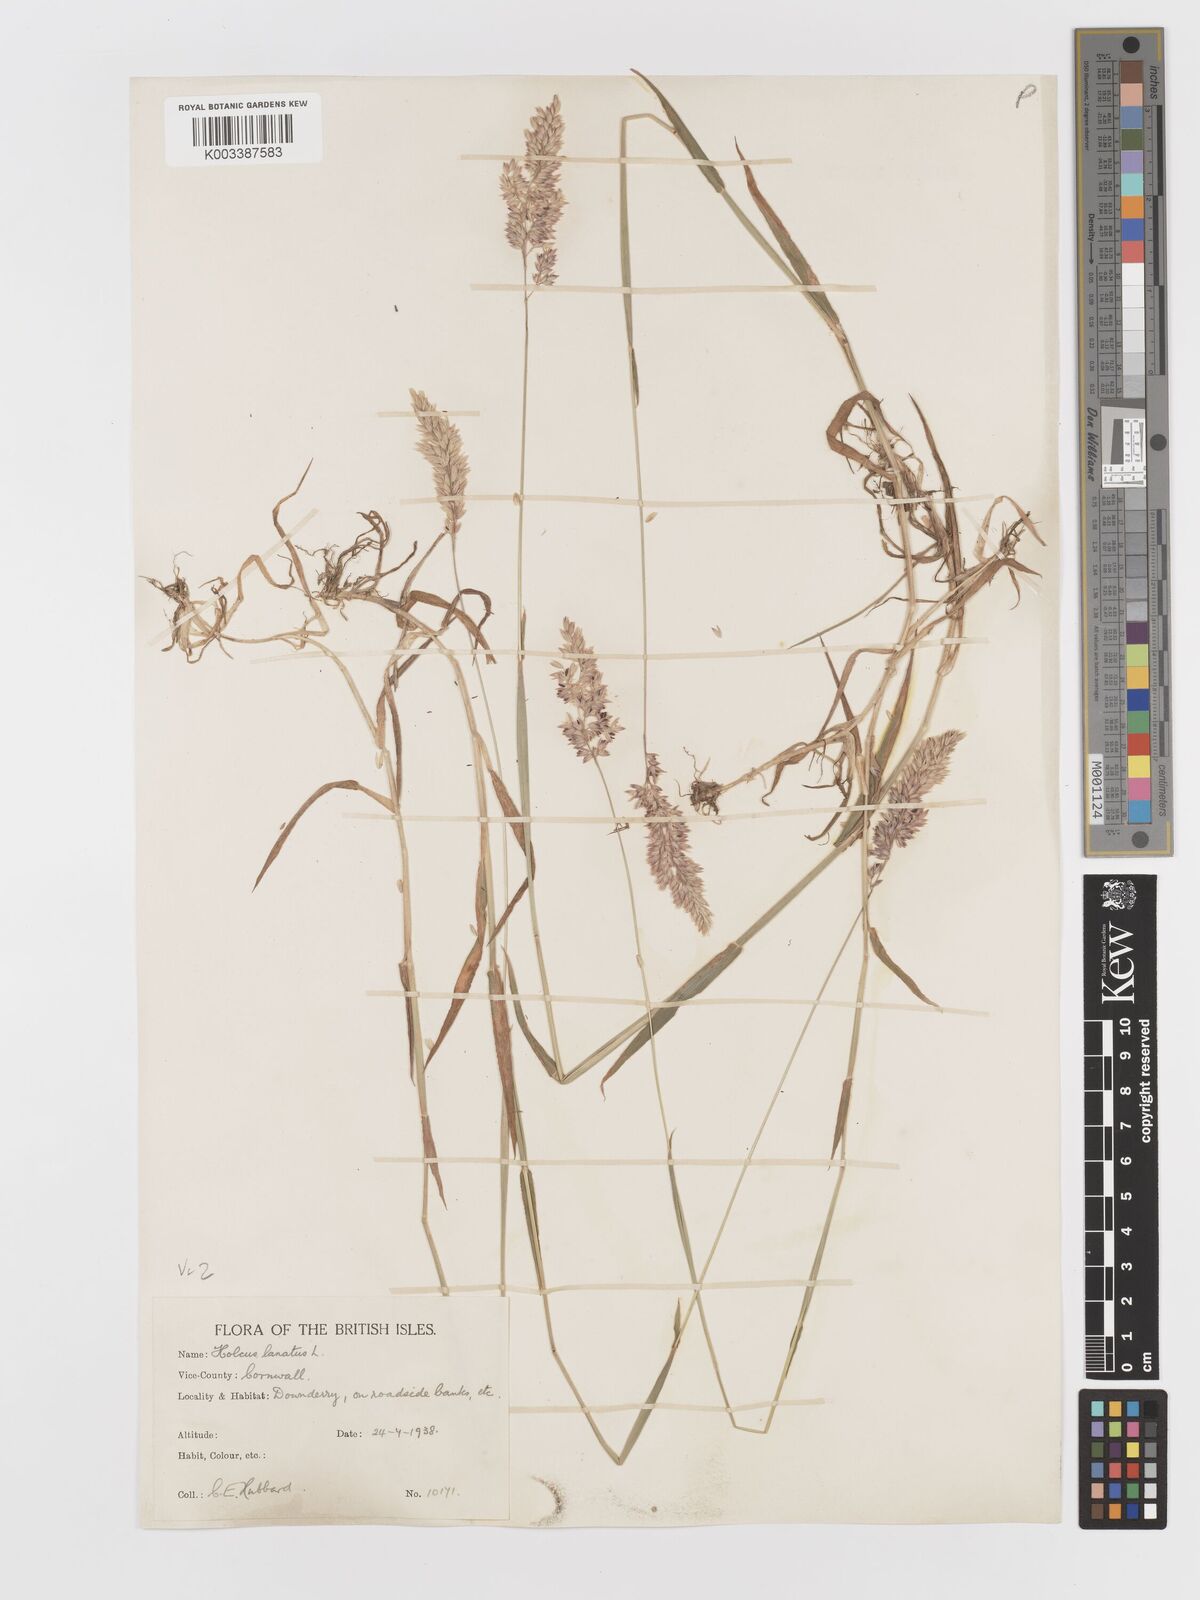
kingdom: Plantae
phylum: Tracheophyta
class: Liliopsida
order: Poales
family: Poaceae
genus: Holcus
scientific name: Holcus lanatus
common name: Yorkshire-fog
